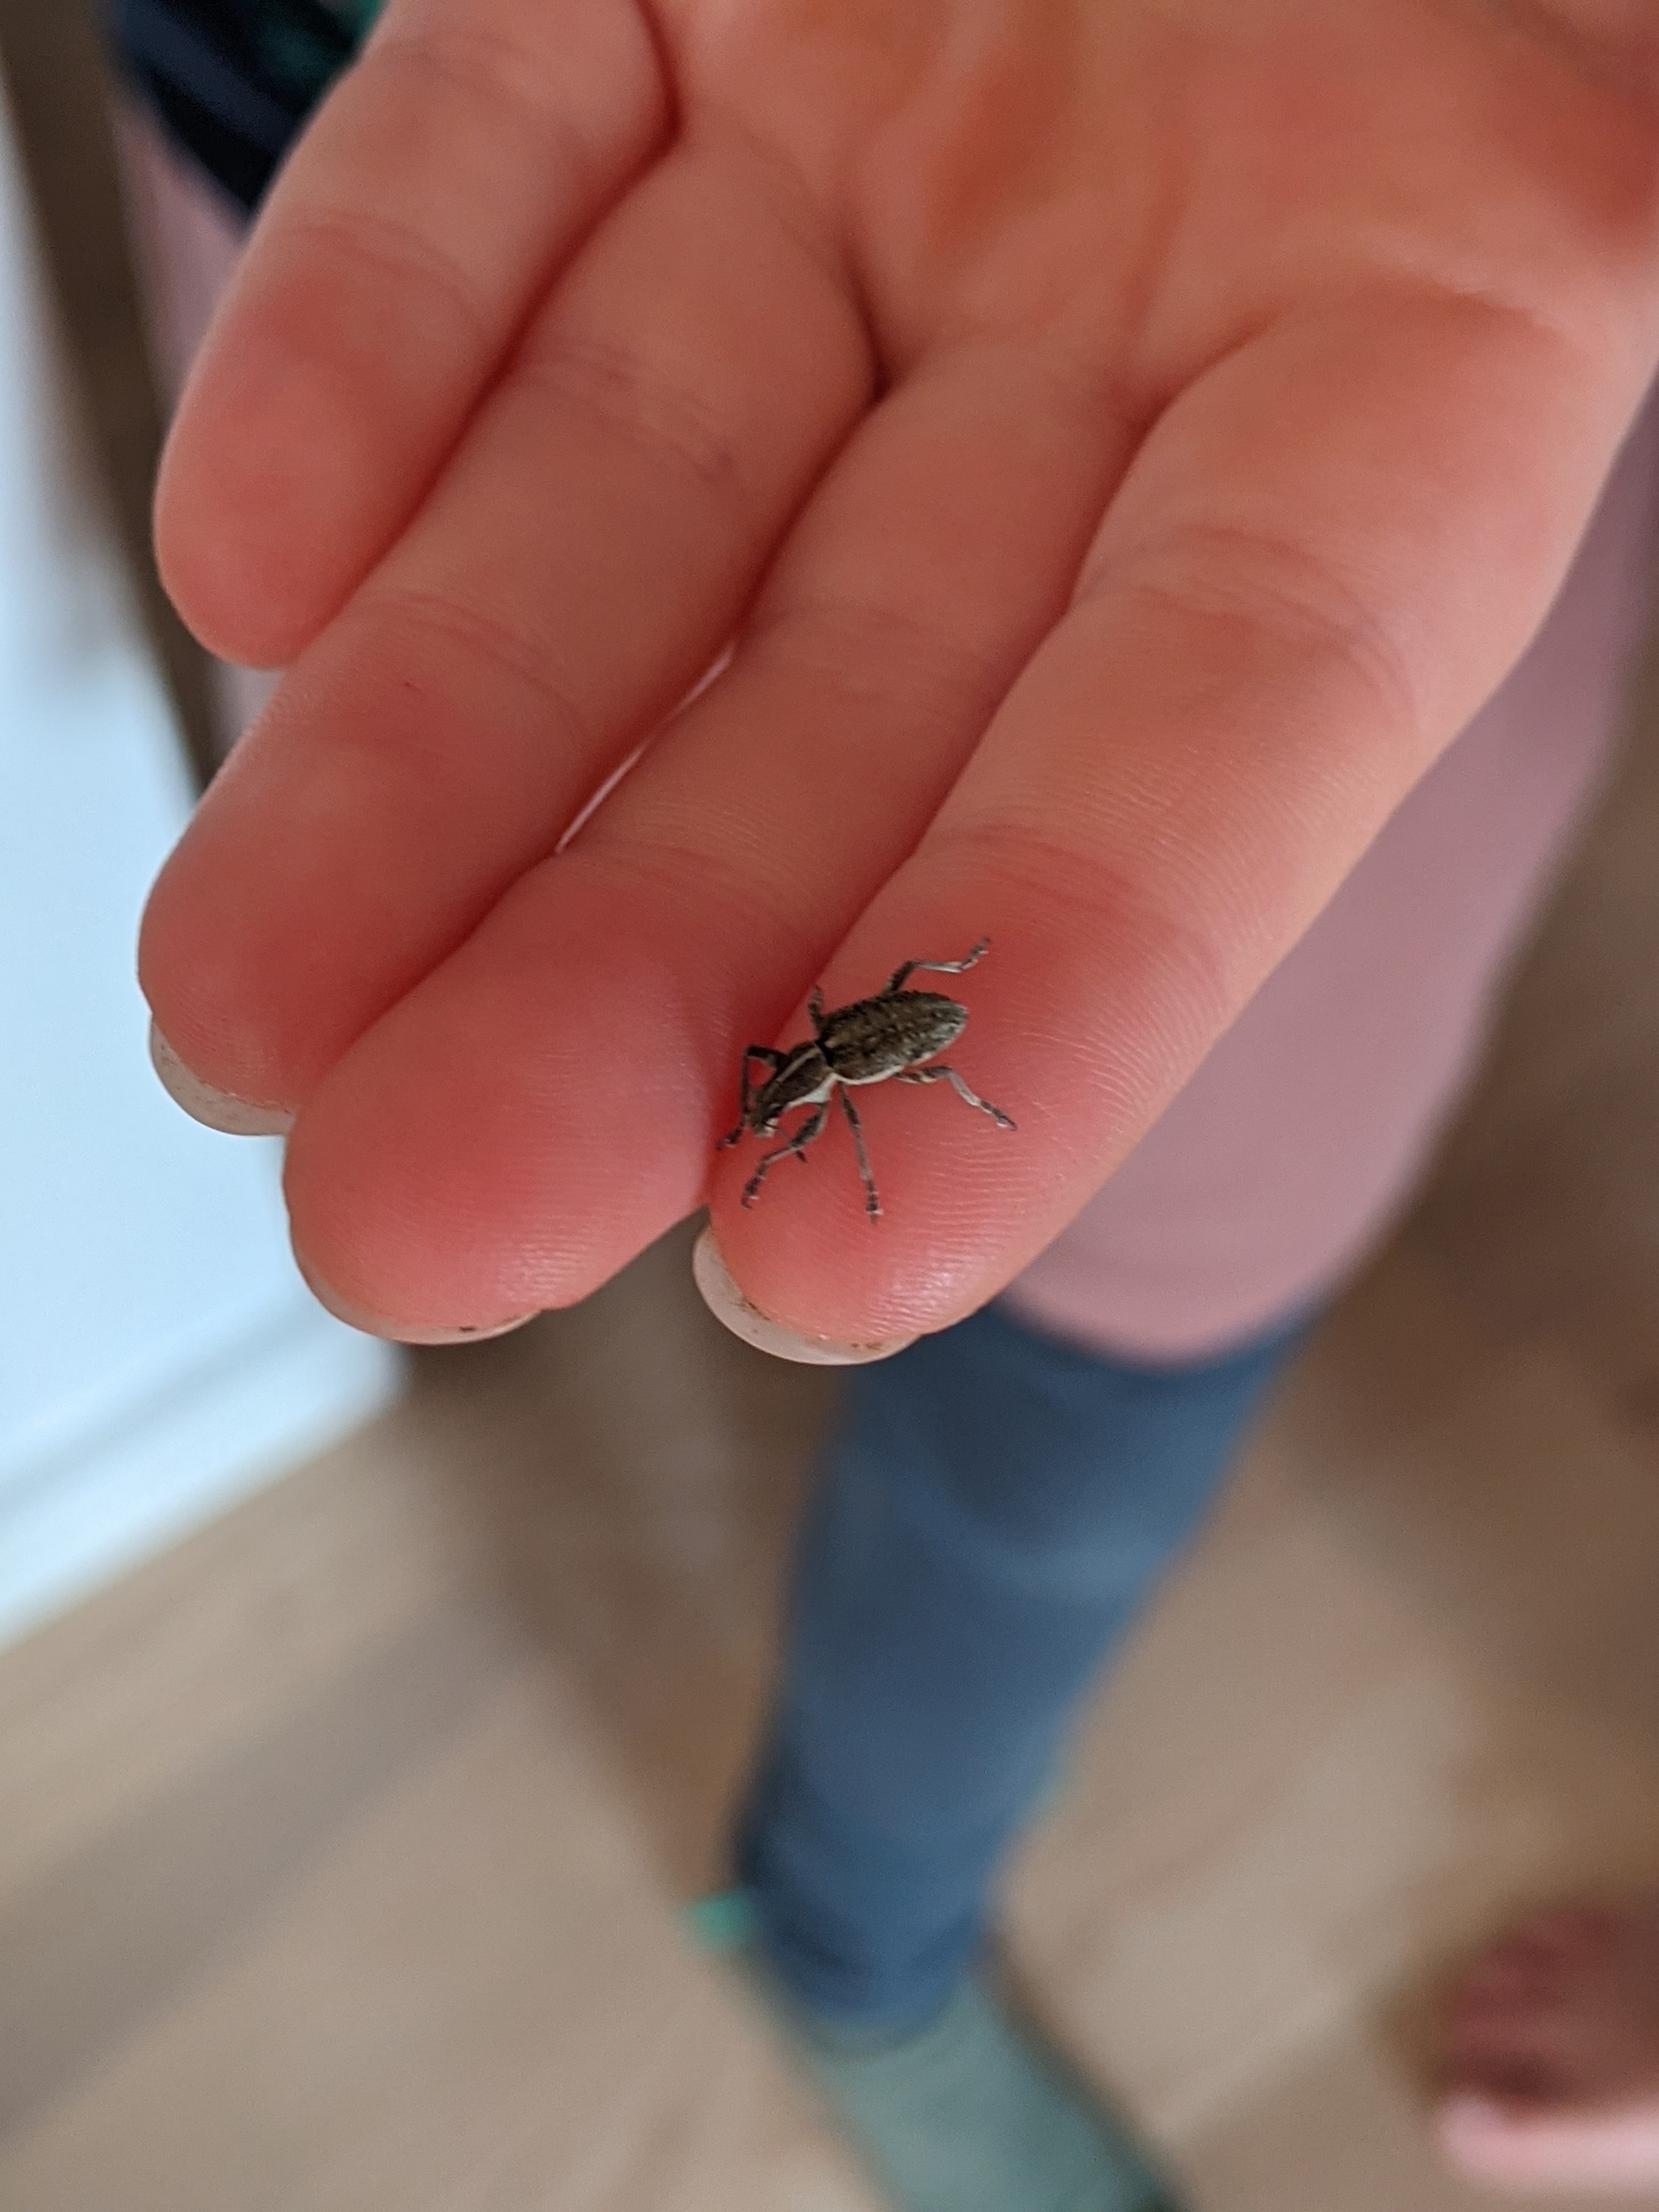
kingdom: Animalia
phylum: Arthropoda
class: Insecta
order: Coleoptera
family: Curculionidae
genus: Charagmus
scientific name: Charagmus gressorius
